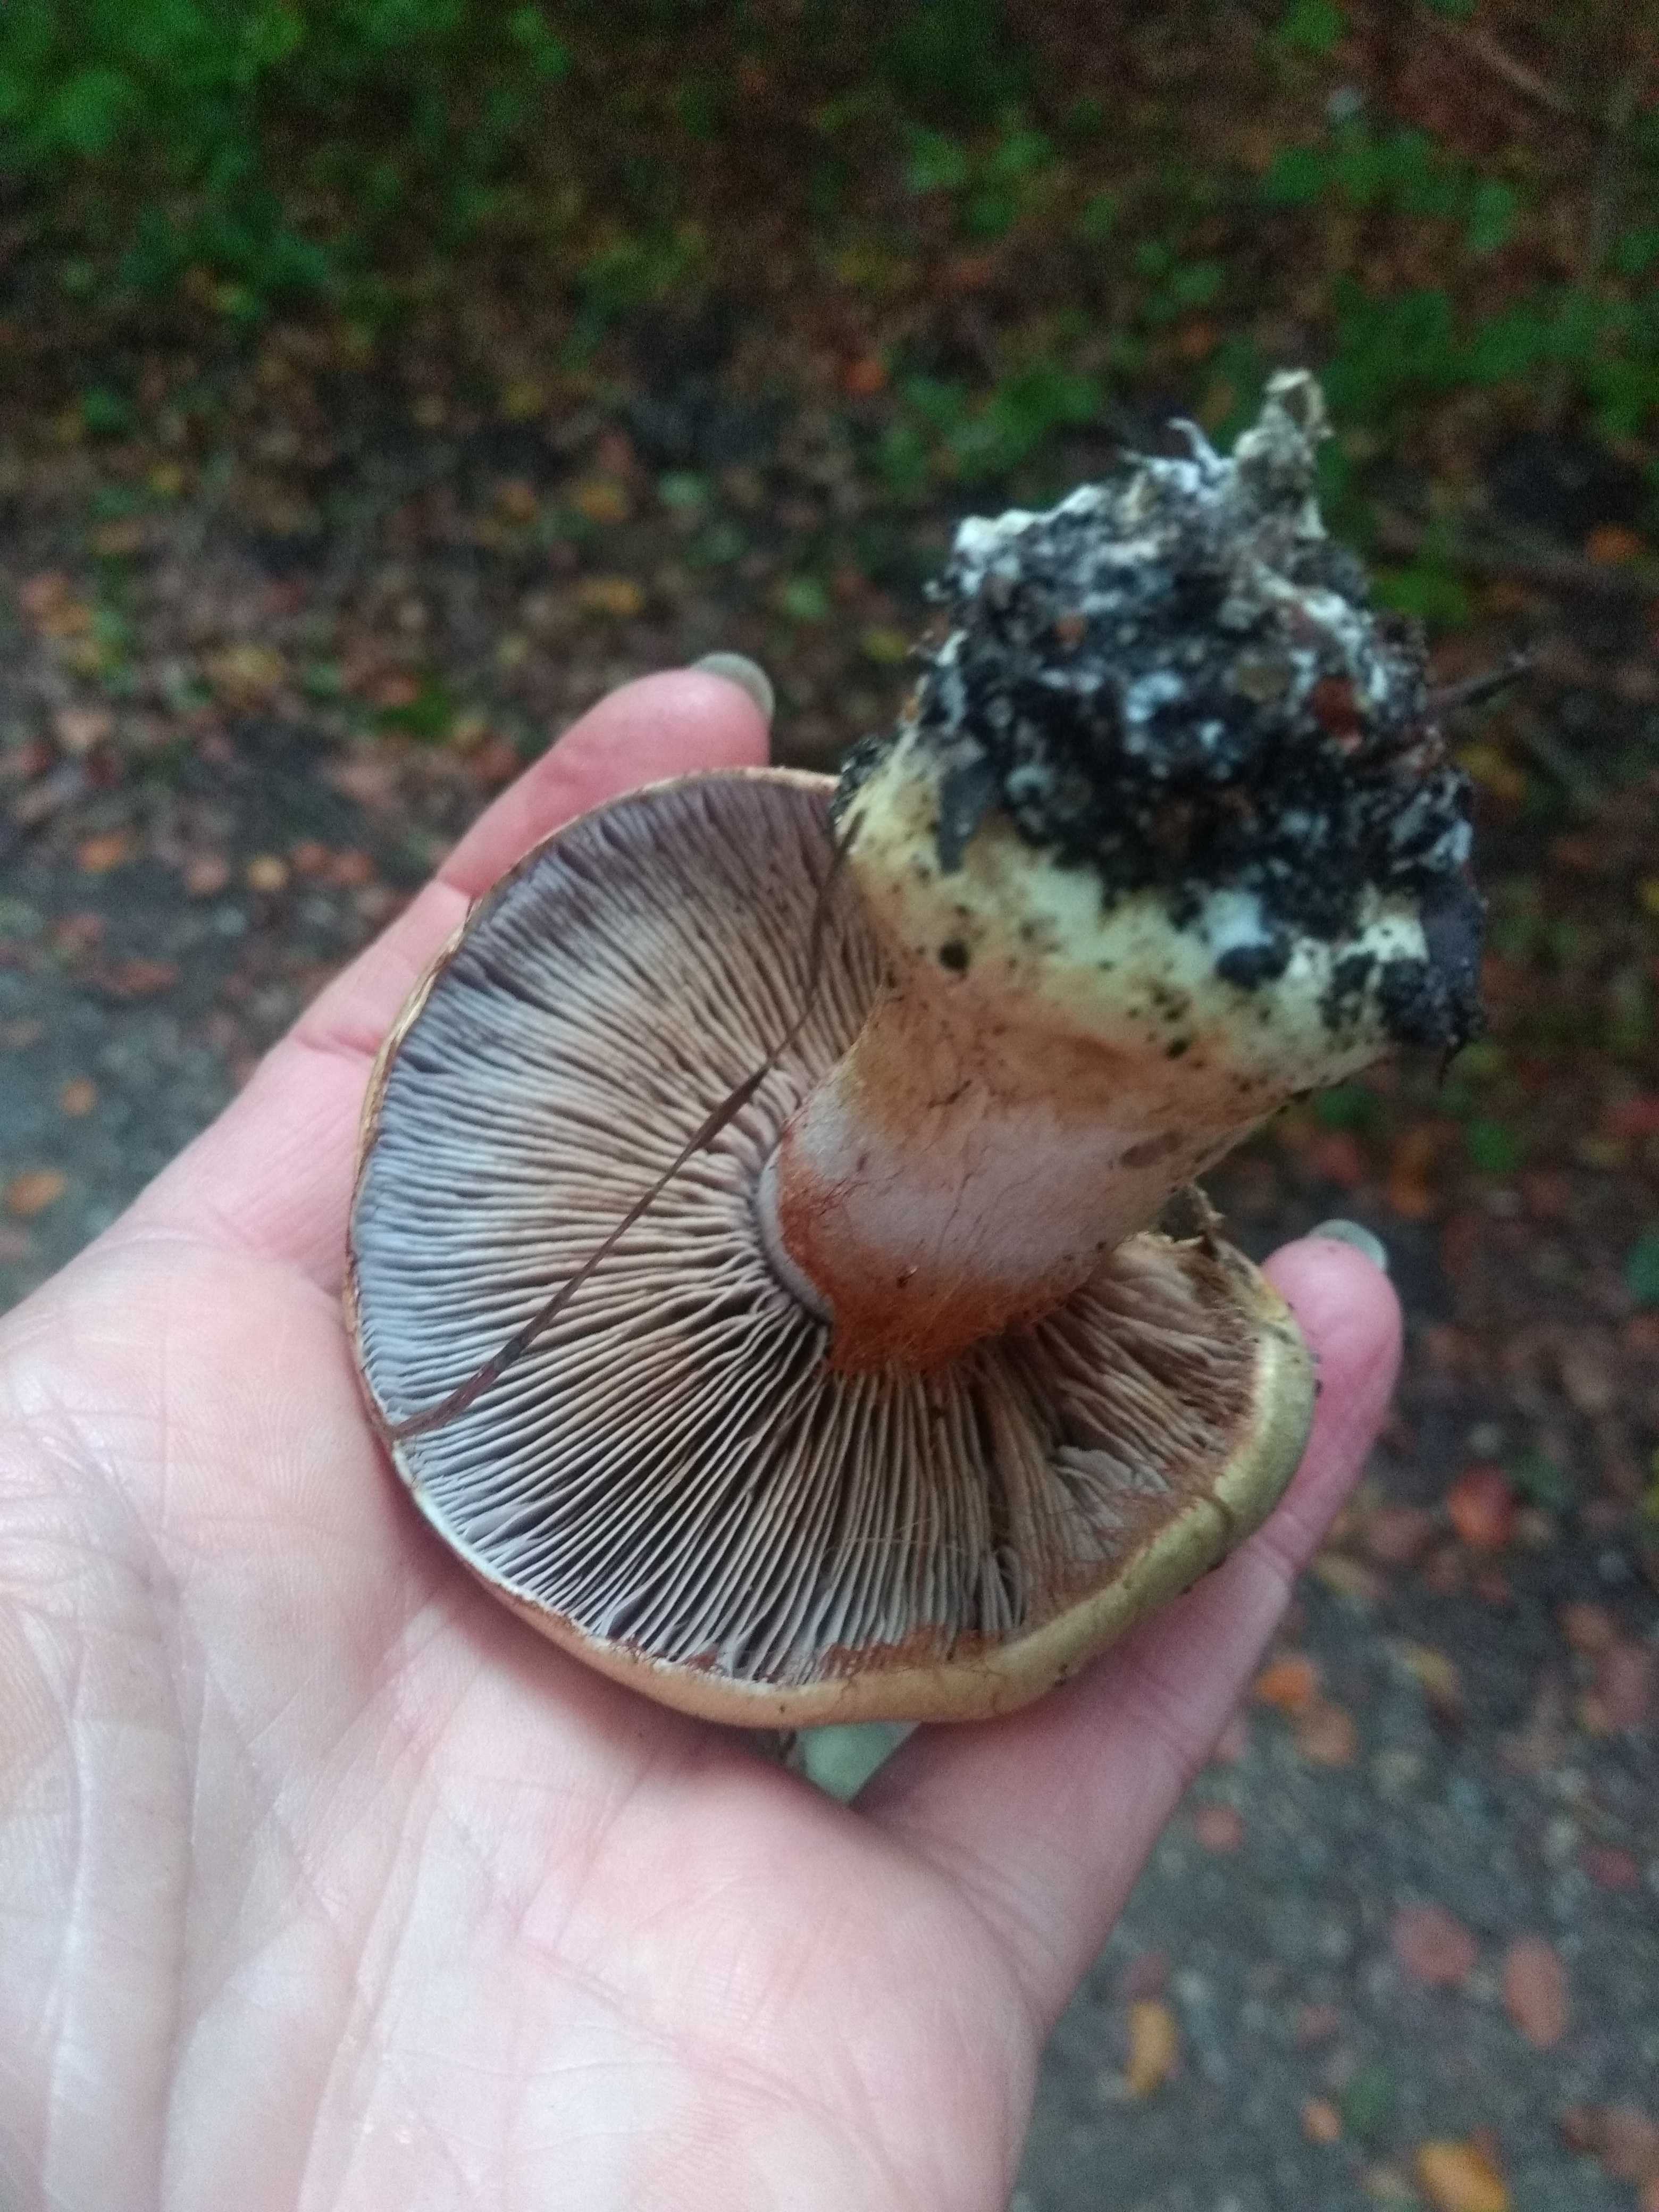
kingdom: Fungi
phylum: Basidiomycota
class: Agaricomycetes
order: Agaricales
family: Cortinariaceae
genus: Cortinarius
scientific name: Cortinarius anserinus
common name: bøge-slørhat
